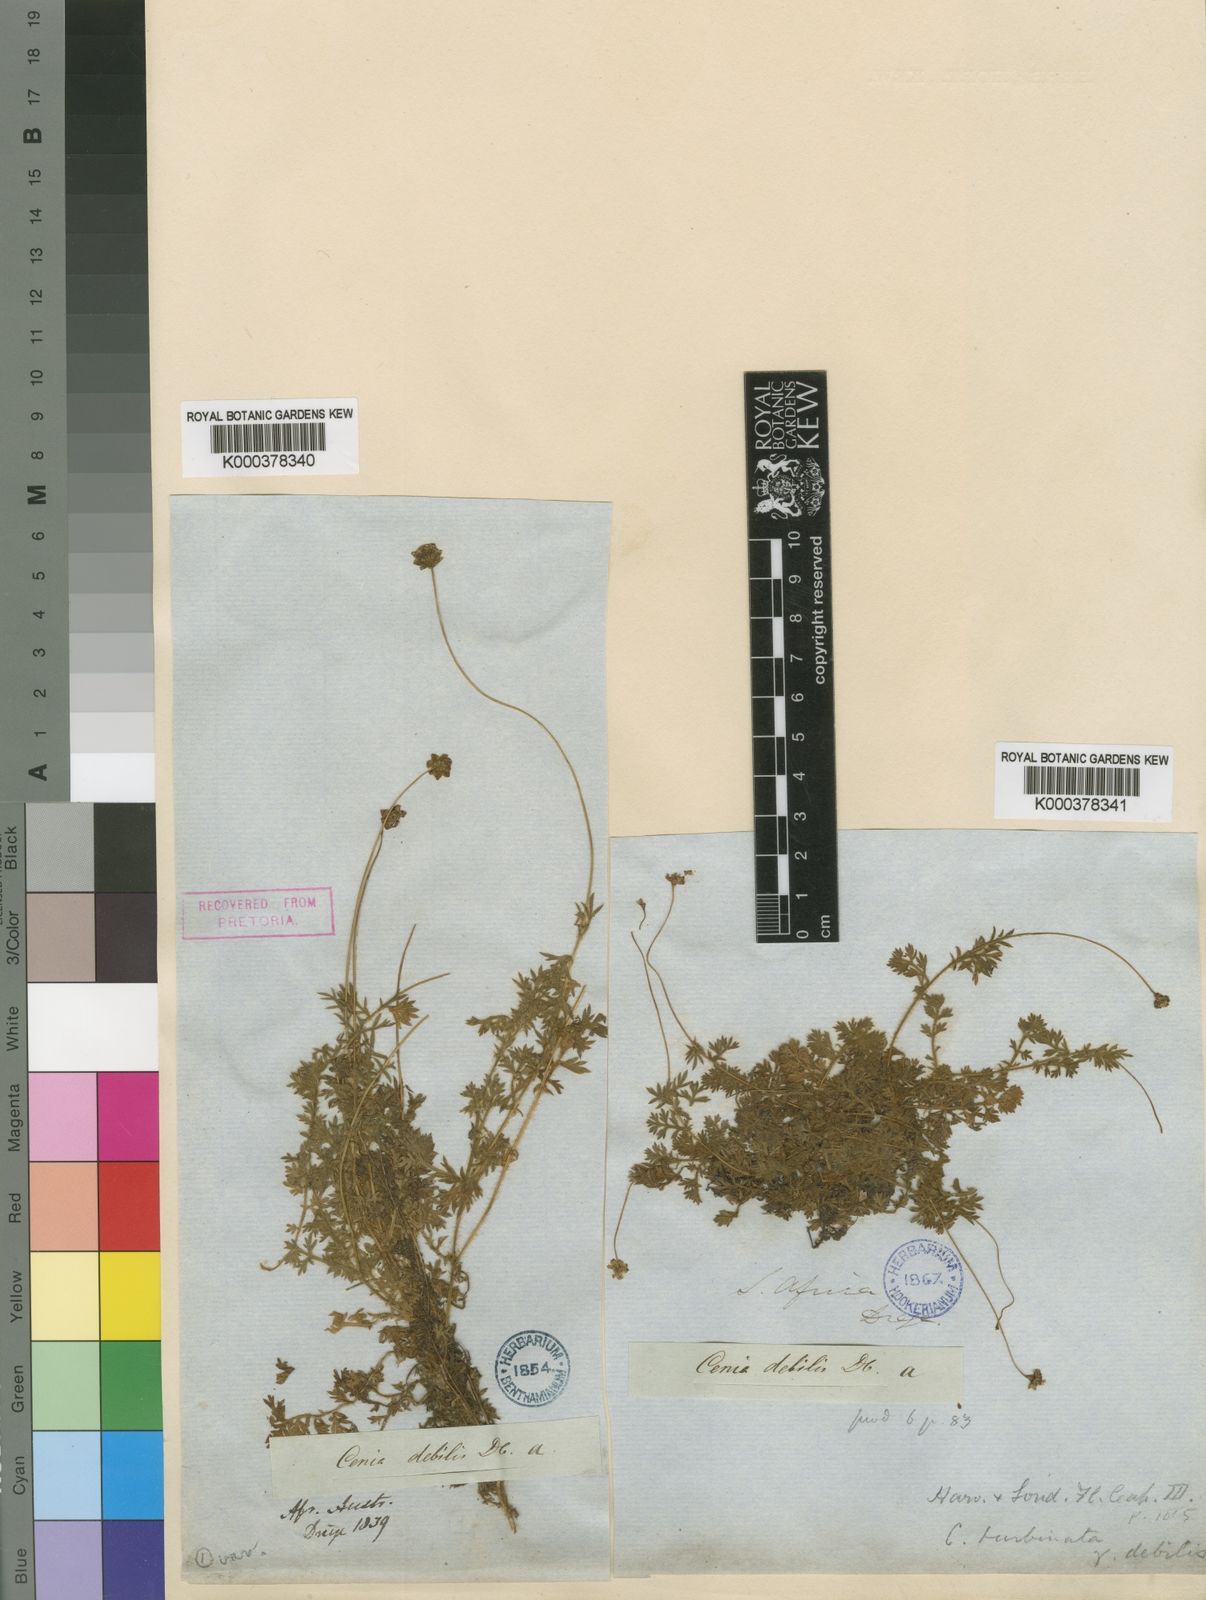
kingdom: Plantae
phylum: Tracheophyta
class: Magnoliopsida
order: Asterales
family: Asteraceae
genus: Cotula
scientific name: Cotula turbinata
